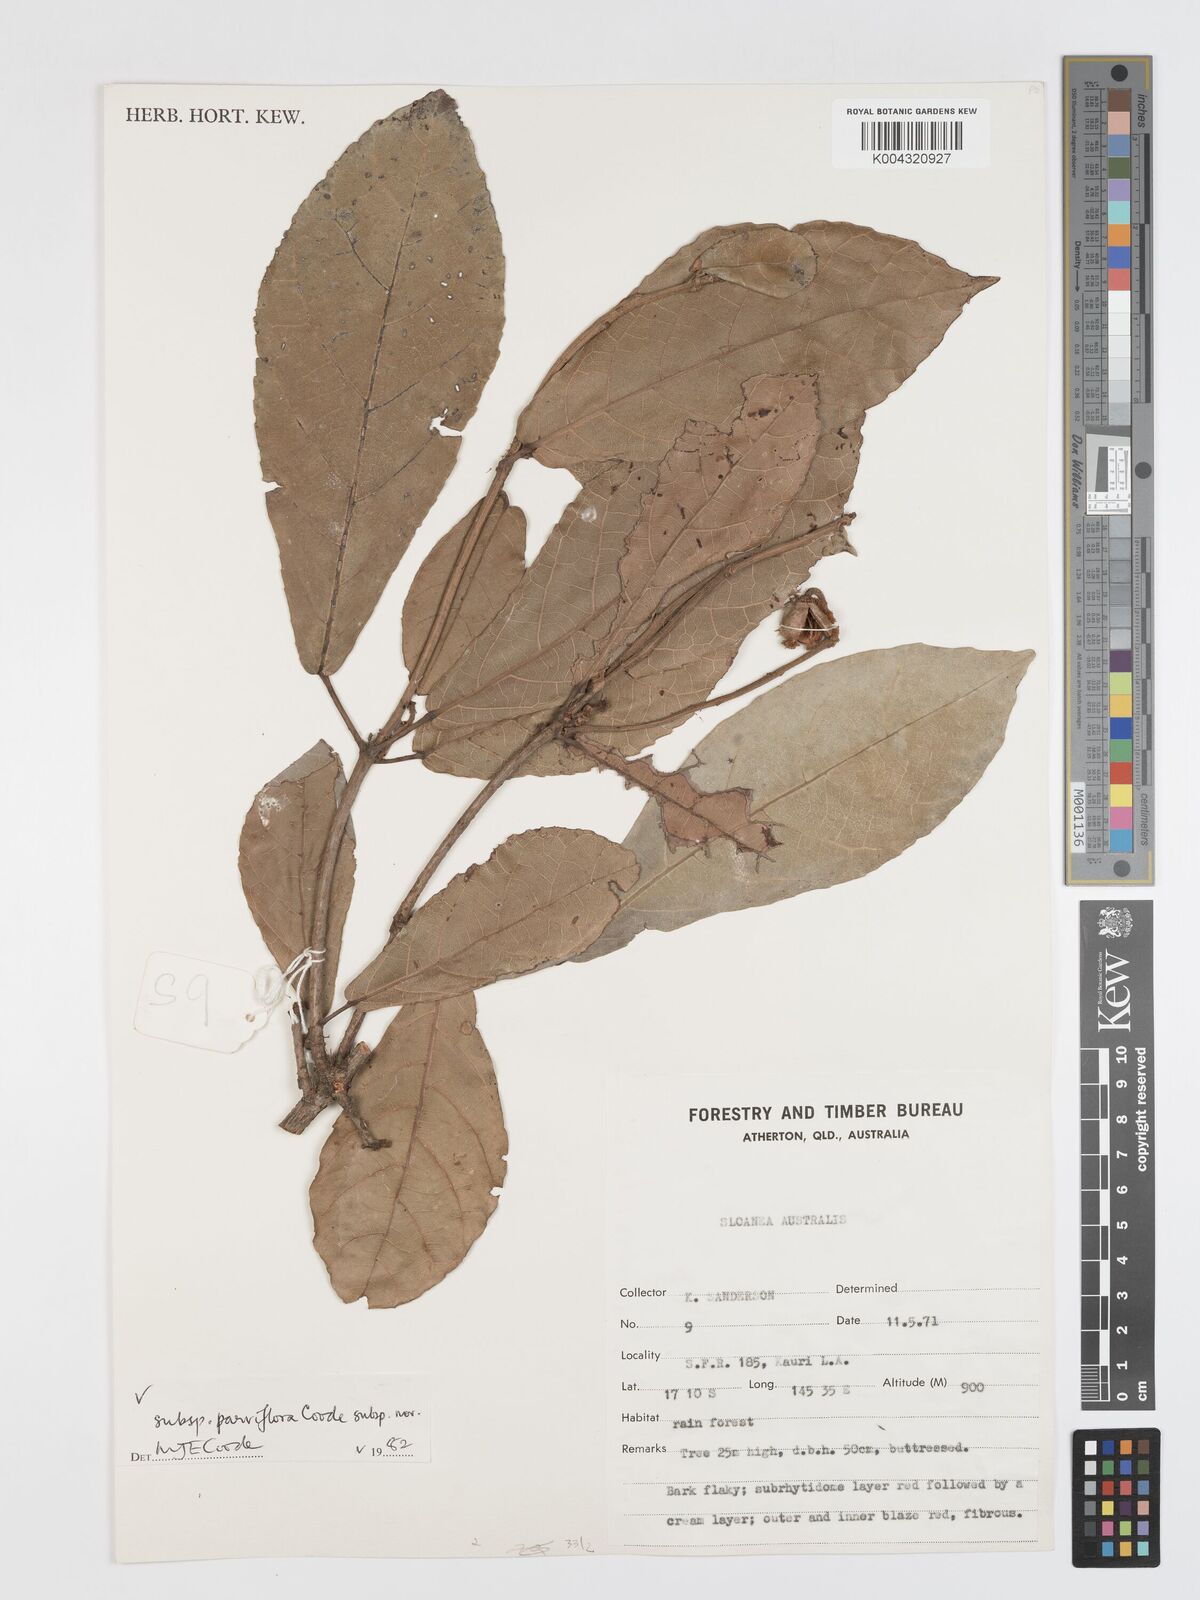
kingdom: Plantae
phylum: Tracheophyta
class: Magnoliopsida
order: Oxalidales
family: Elaeocarpaceae
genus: Sloanea
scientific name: Sloanea australis
